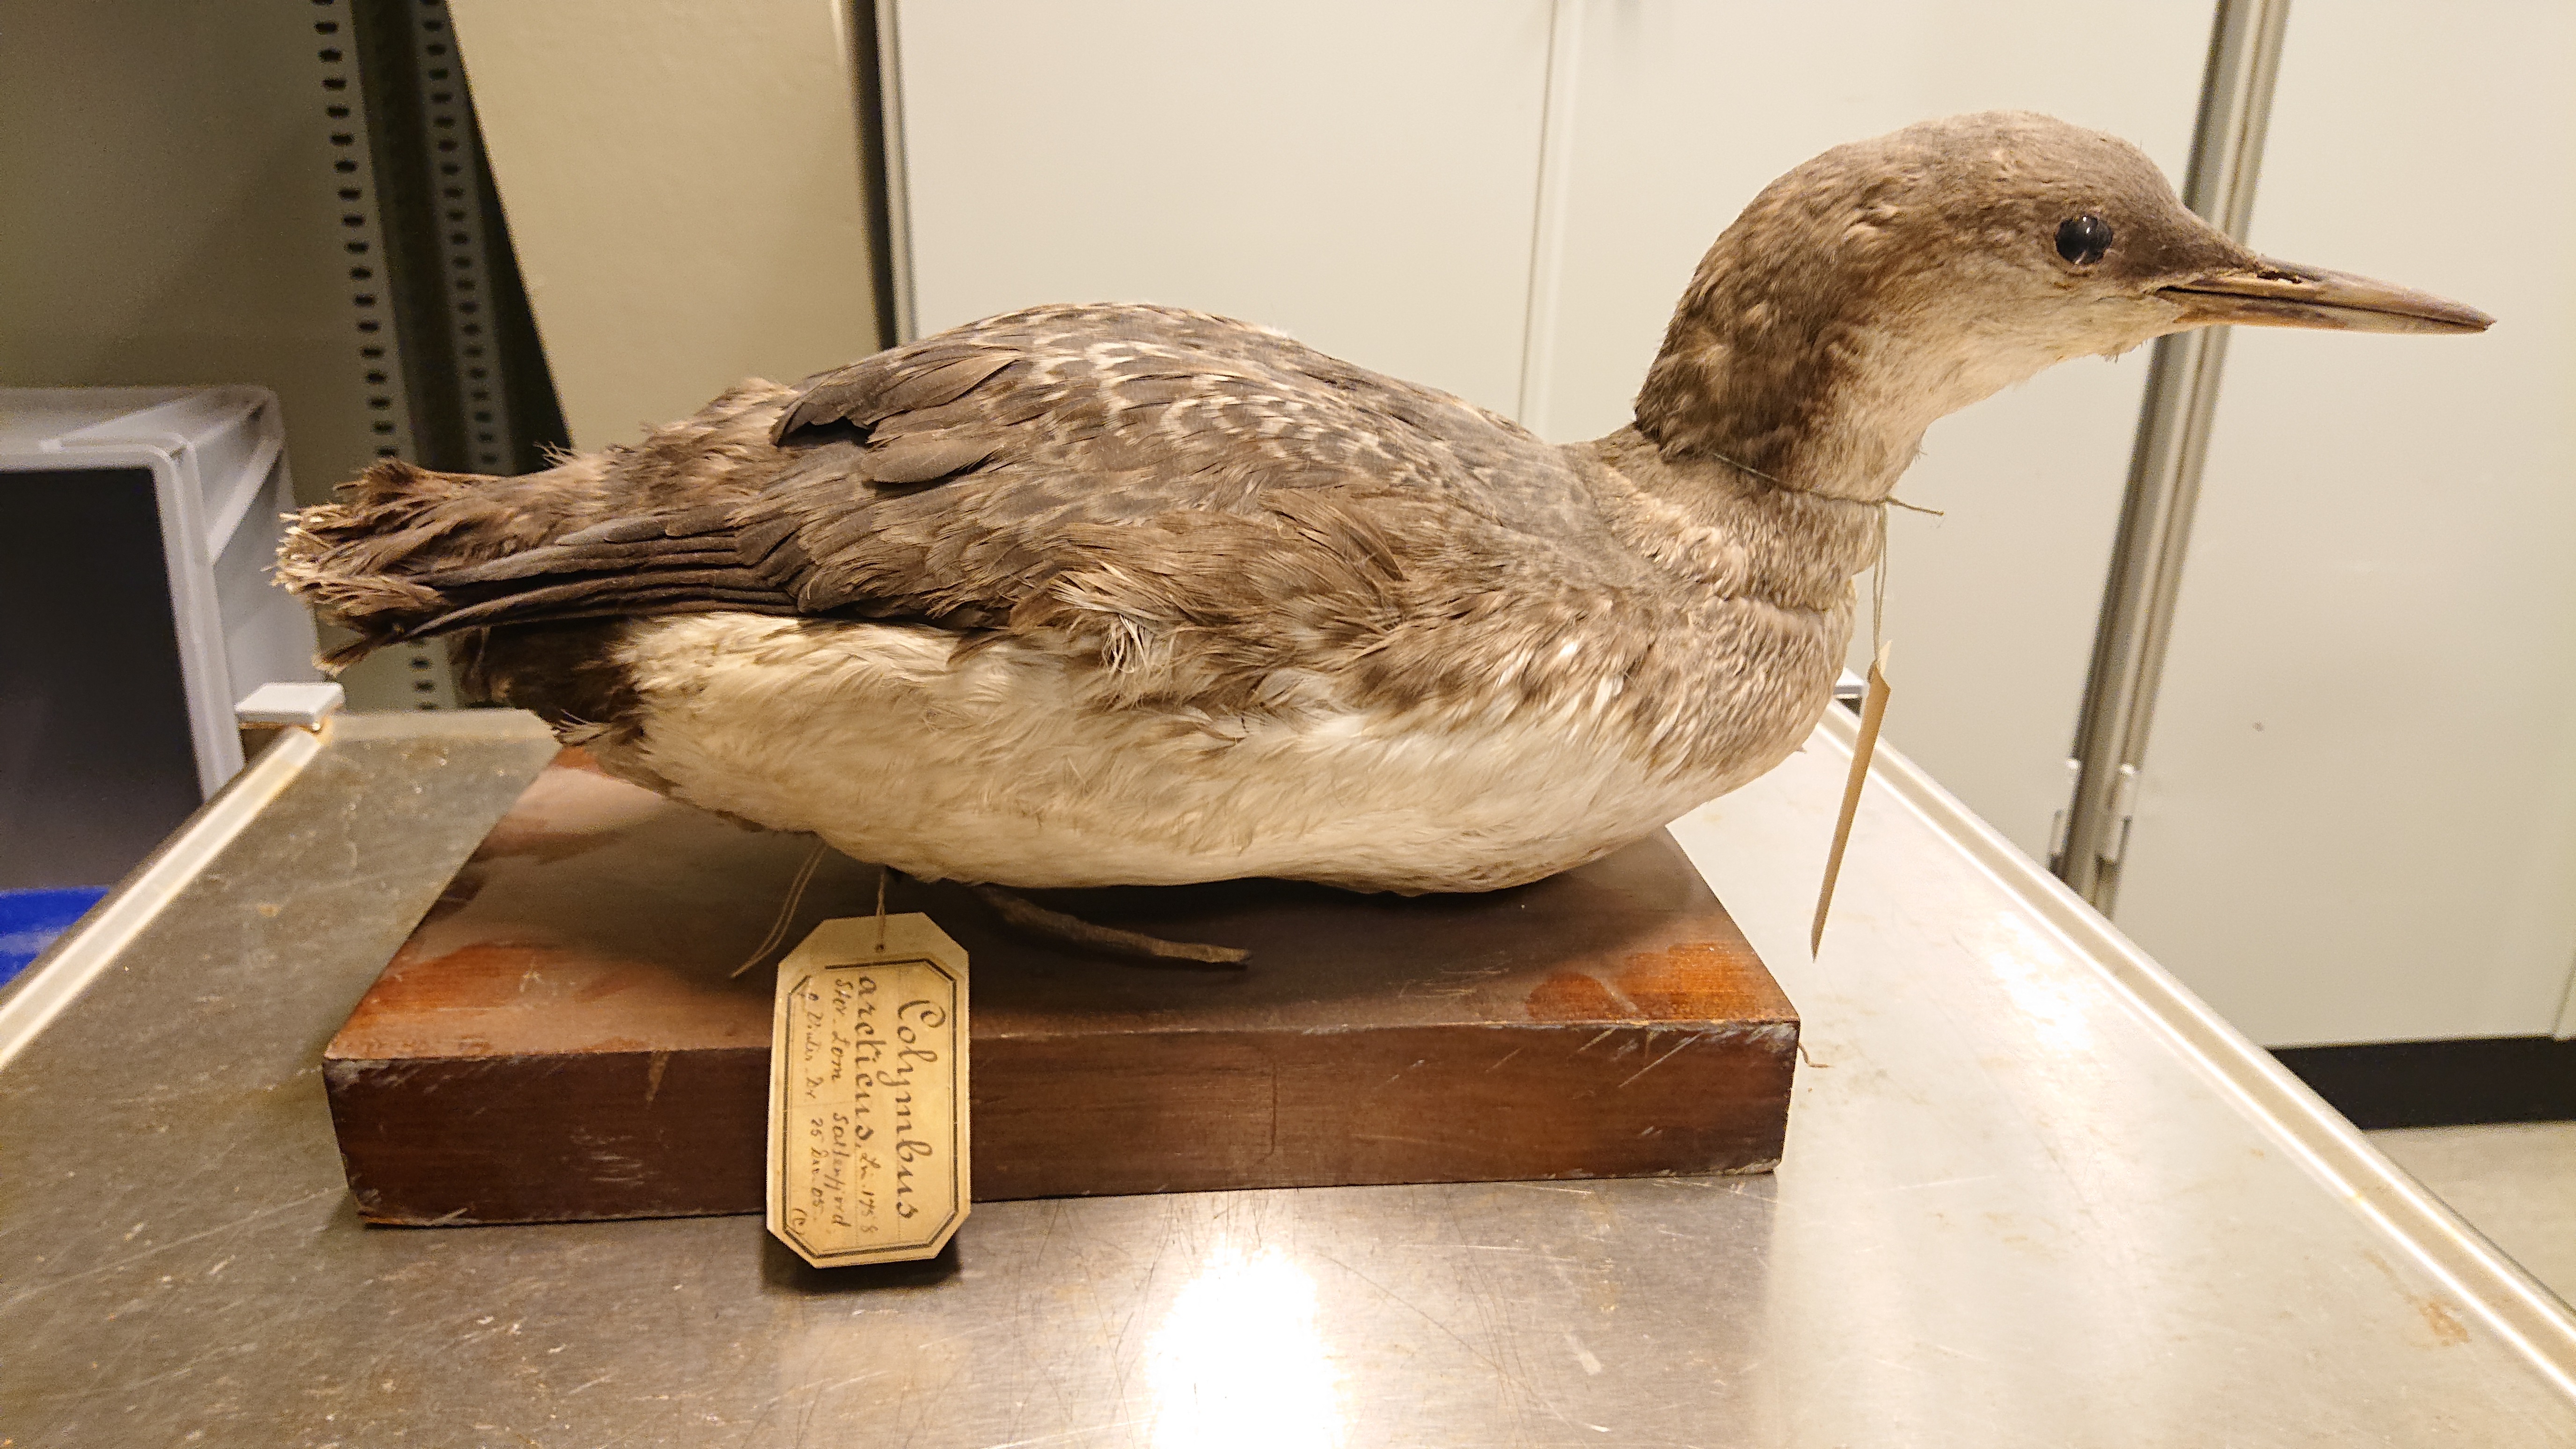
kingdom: Animalia
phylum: Chordata
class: Aves
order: Gaviiformes
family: Gaviidae
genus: Gavia
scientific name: Gavia arctica
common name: Black-throated loon
